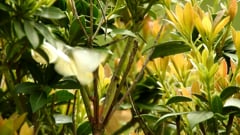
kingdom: Animalia
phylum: Arthropoda
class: Insecta
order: Lepidoptera
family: Pieridae
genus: Pieris
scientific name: Pieris rapae
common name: Small white
